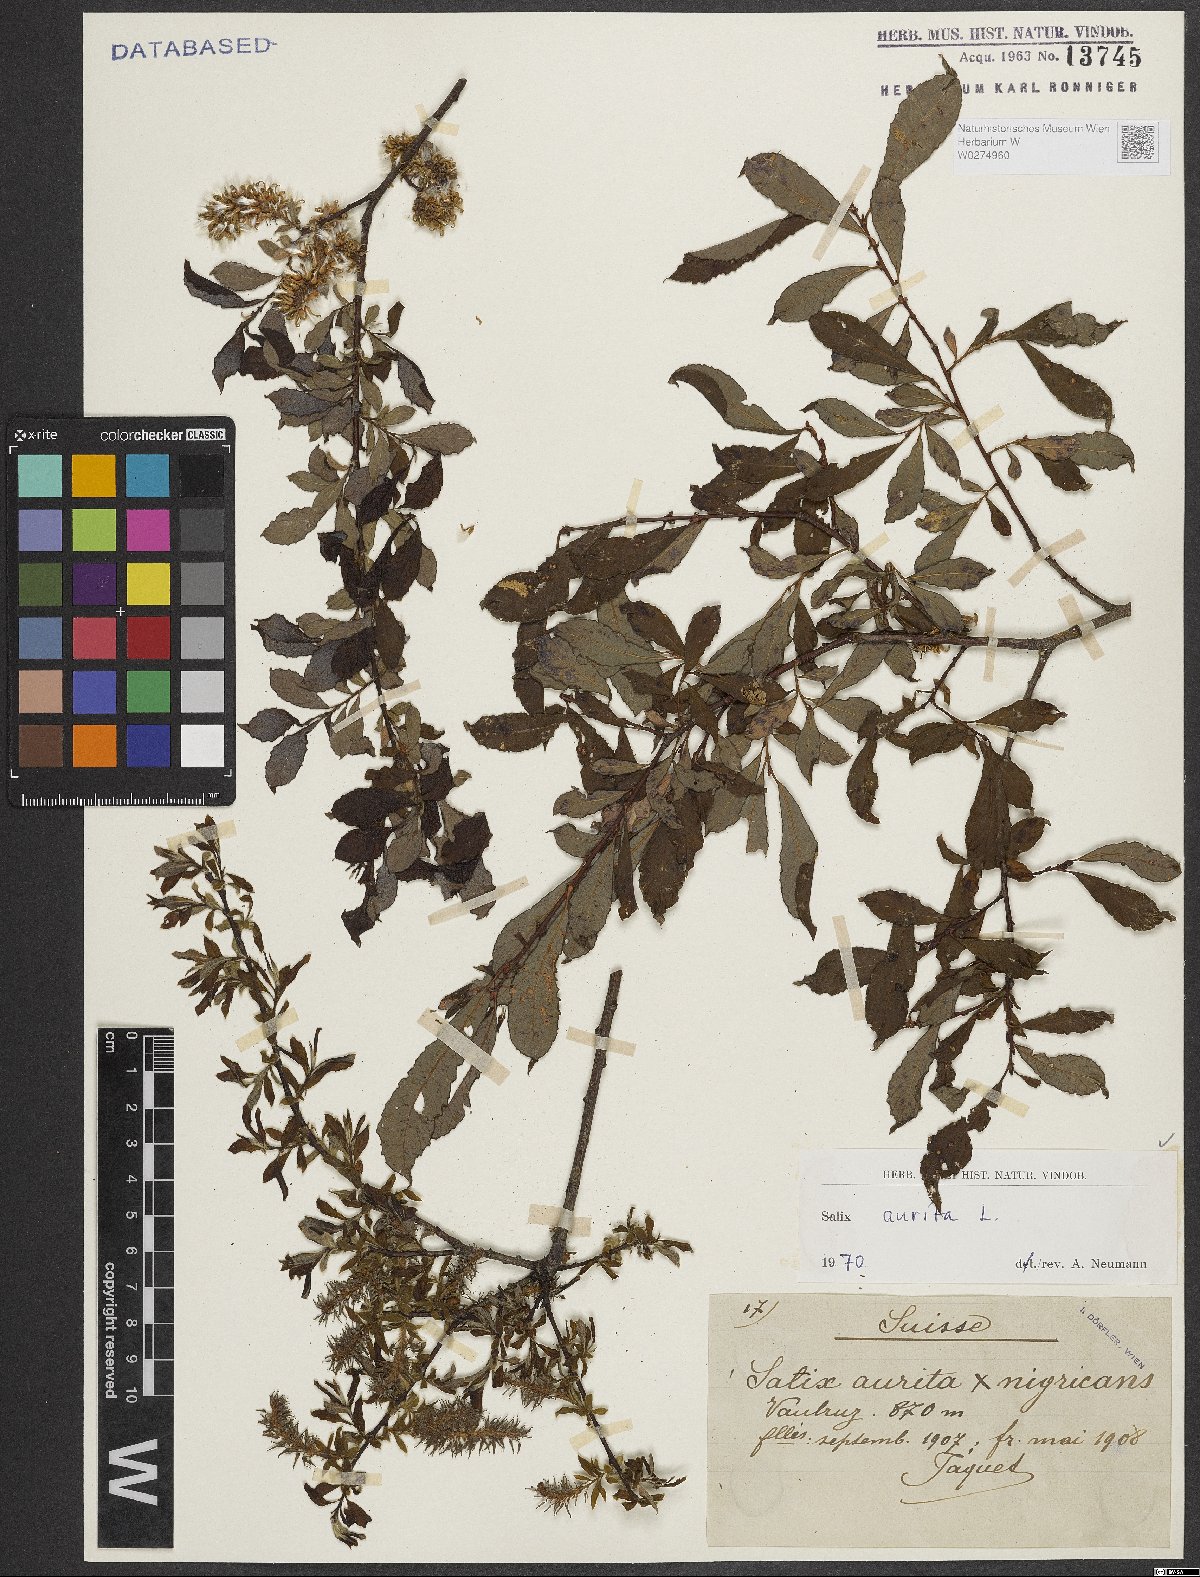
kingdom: Plantae
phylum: Tracheophyta
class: Magnoliopsida
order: Malpighiales
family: Salicaceae
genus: Salix
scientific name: Salix aurita
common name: Eared willow
